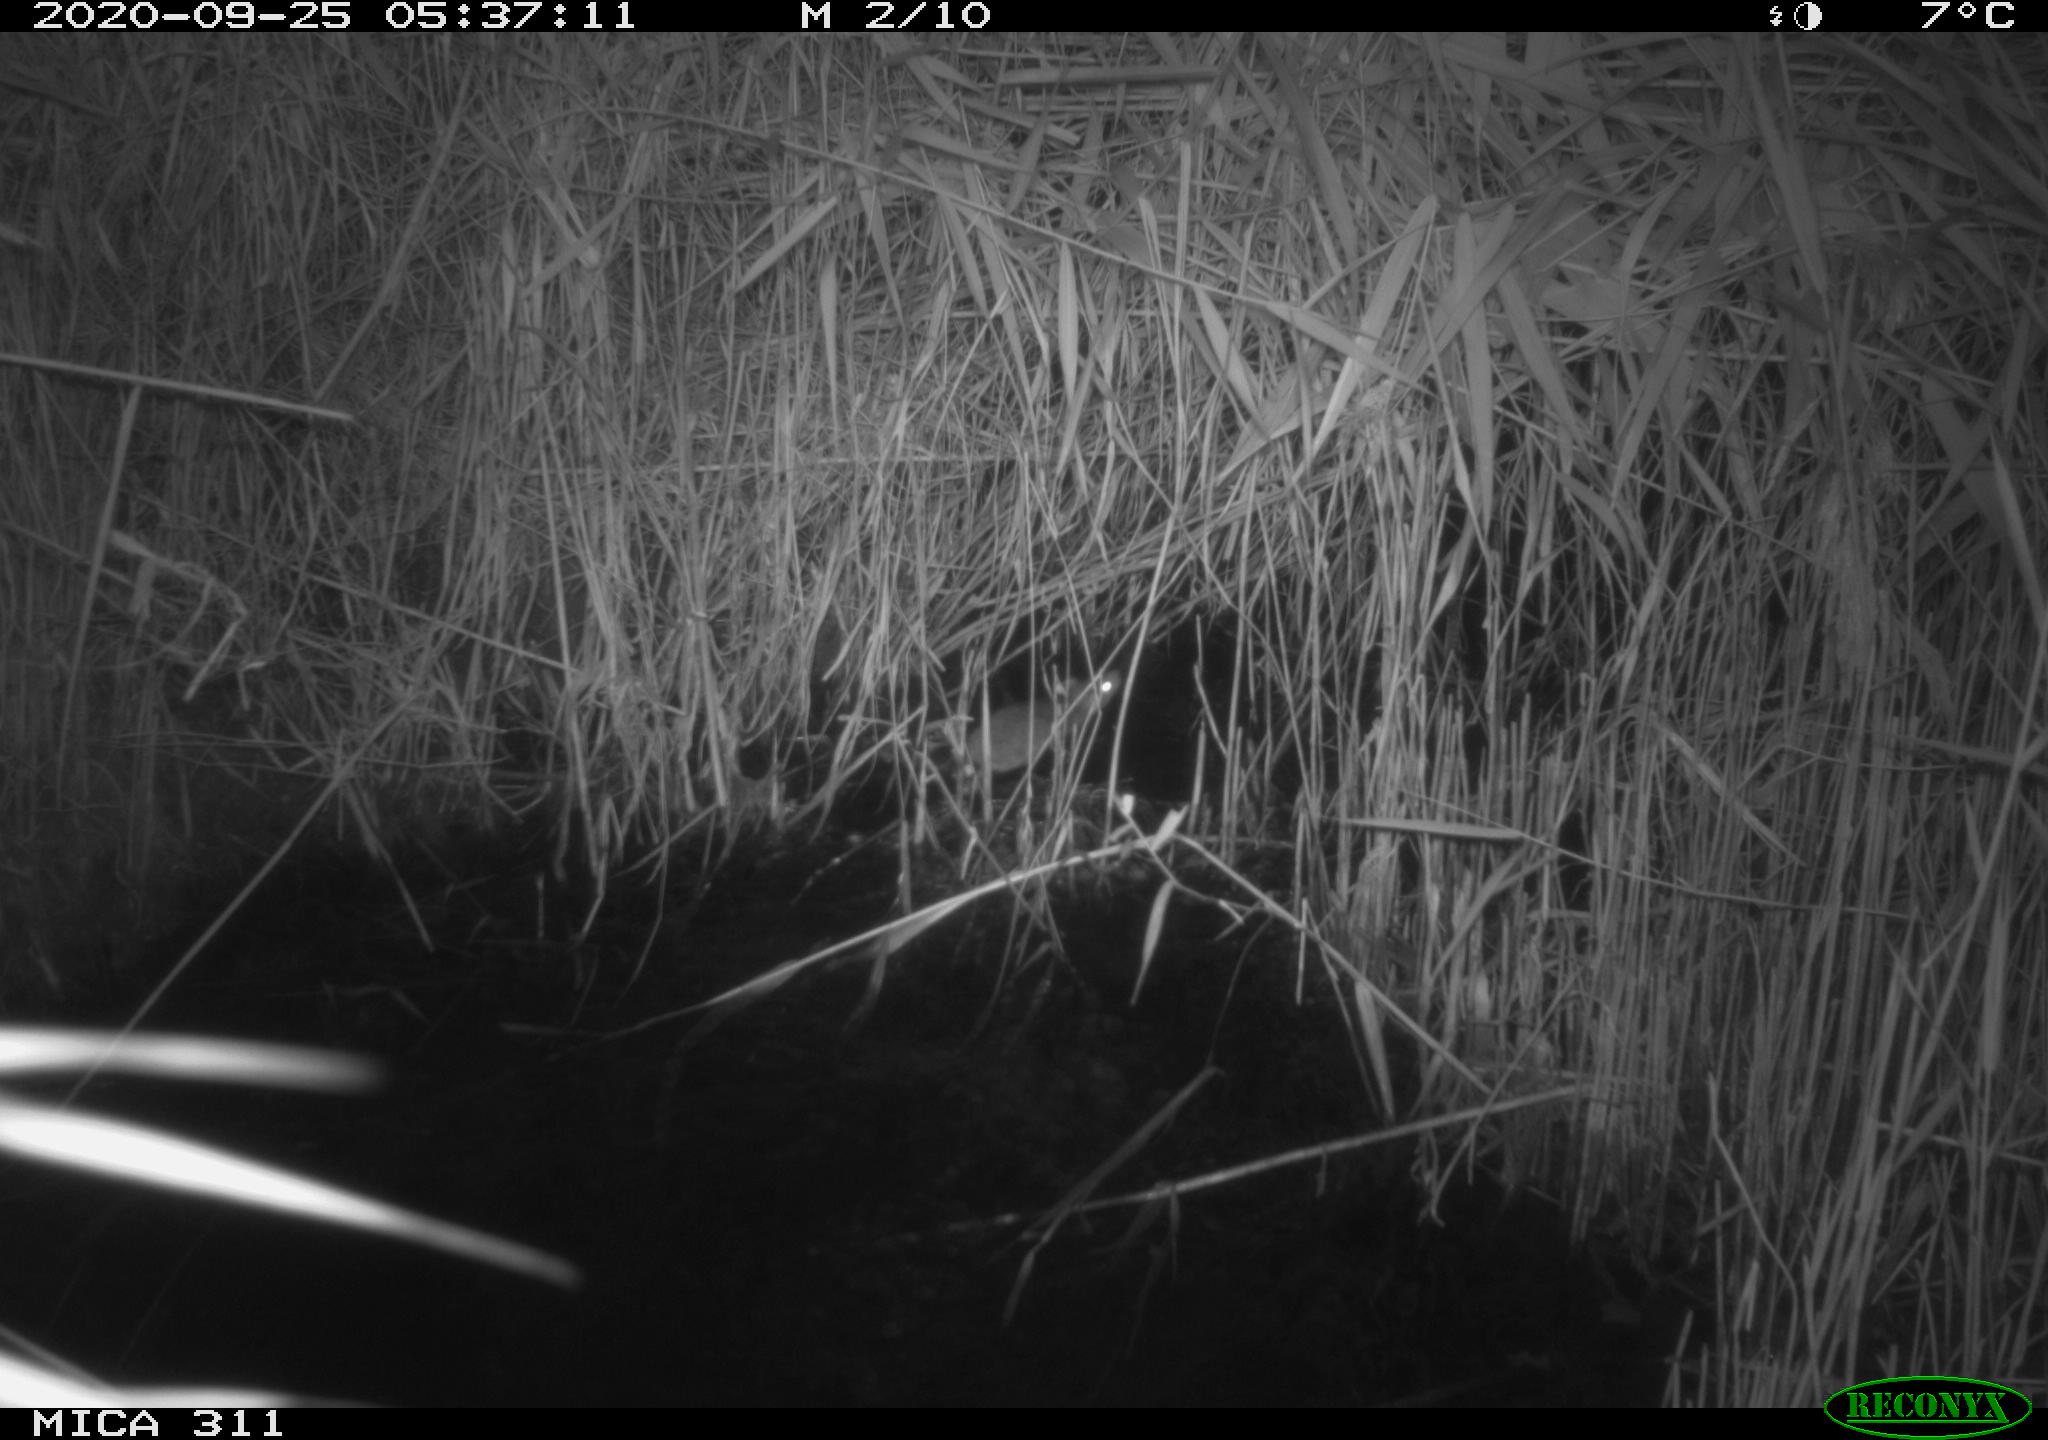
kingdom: Animalia
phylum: Chordata
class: Mammalia
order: Rodentia
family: Muridae
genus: Rattus
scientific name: Rattus norvegicus
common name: Brown rat
